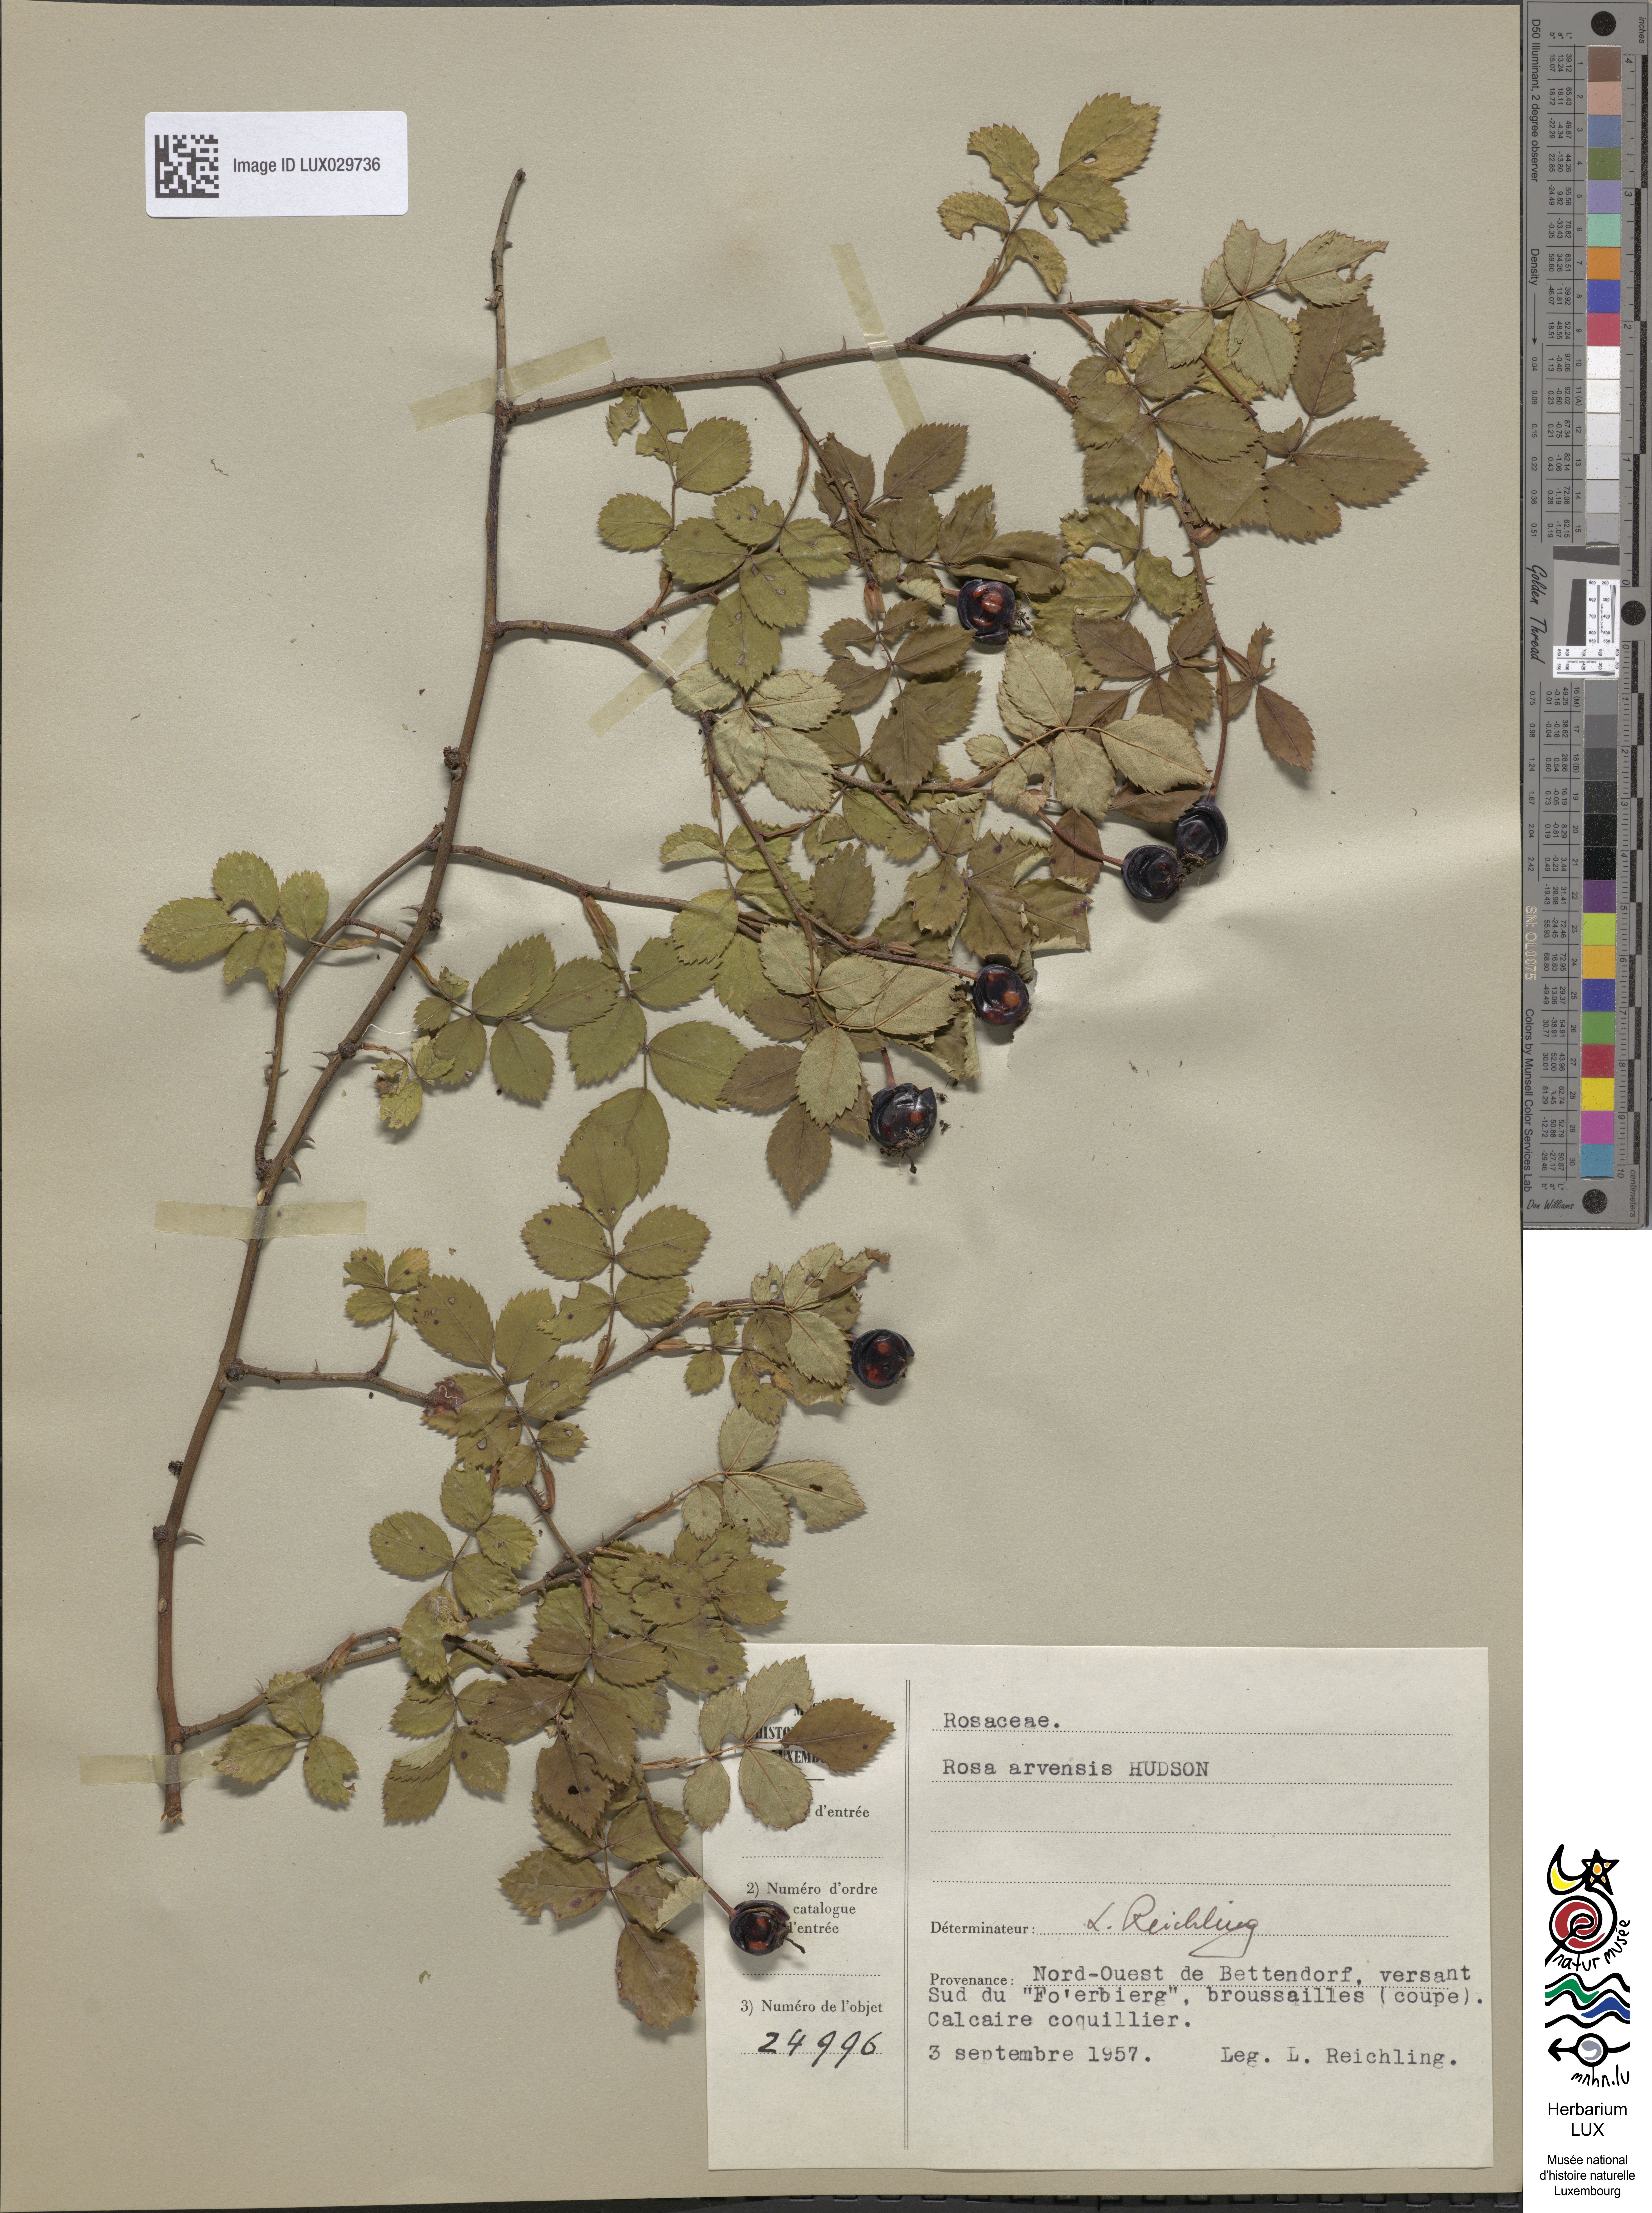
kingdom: Plantae
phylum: Tracheophyta
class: Magnoliopsida
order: Rosales
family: Rosaceae
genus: Rosa
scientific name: Rosa arvensis
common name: Field rose
